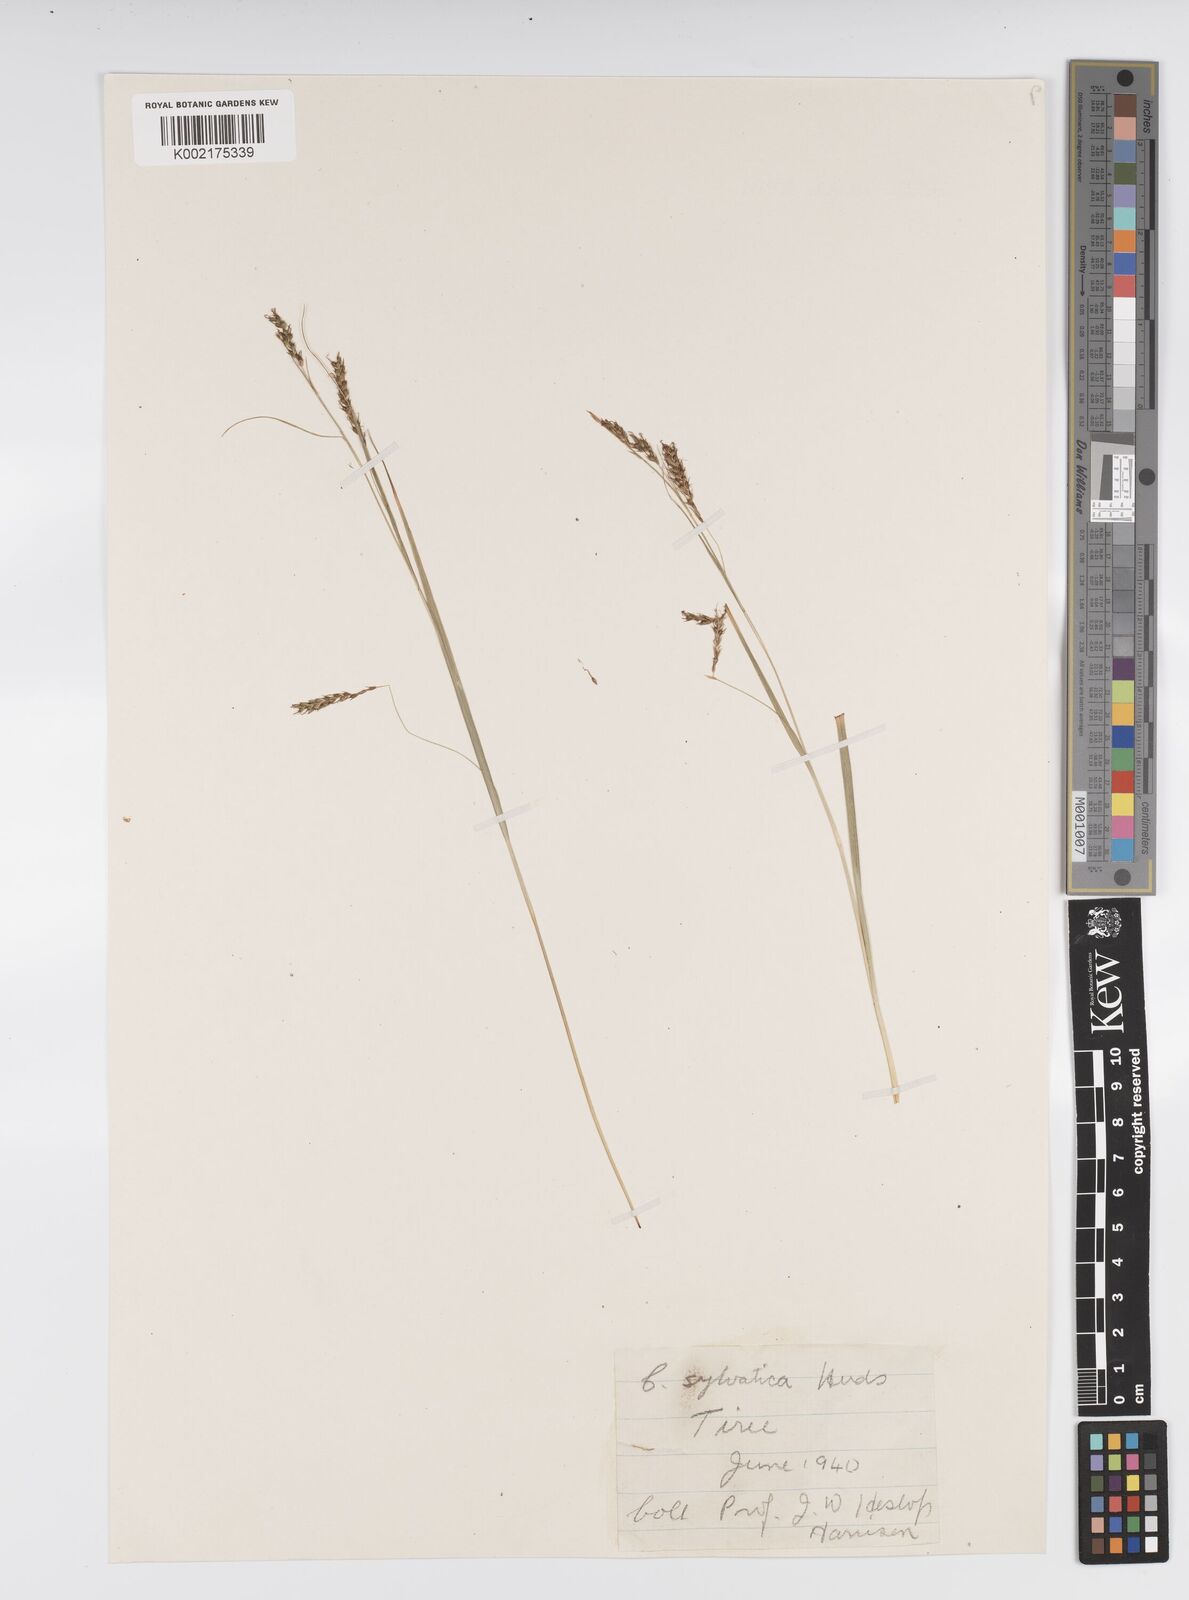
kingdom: Plantae
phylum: Tracheophyta
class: Liliopsida
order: Poales
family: Cyperaceae
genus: Carex
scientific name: Carex sylvatica
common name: Wood-sedge
